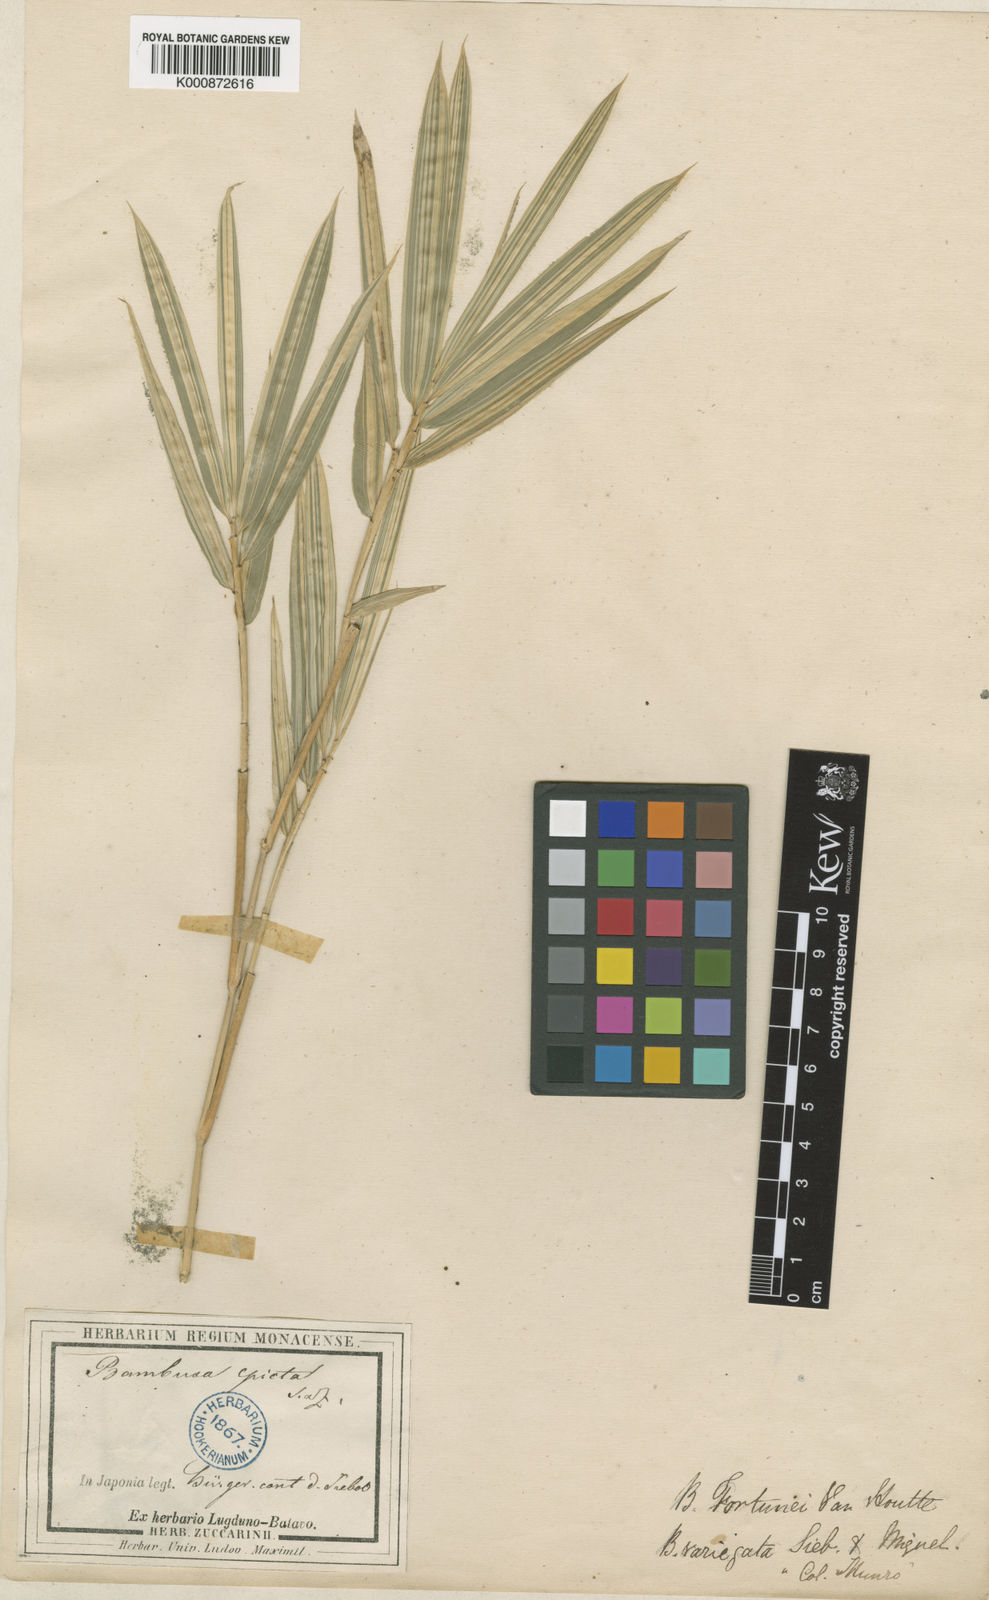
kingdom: Plantae
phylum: Tracheophyta
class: Liliopsida
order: Poales
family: Poaceae
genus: Arundinaria
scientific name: Arundinaria
